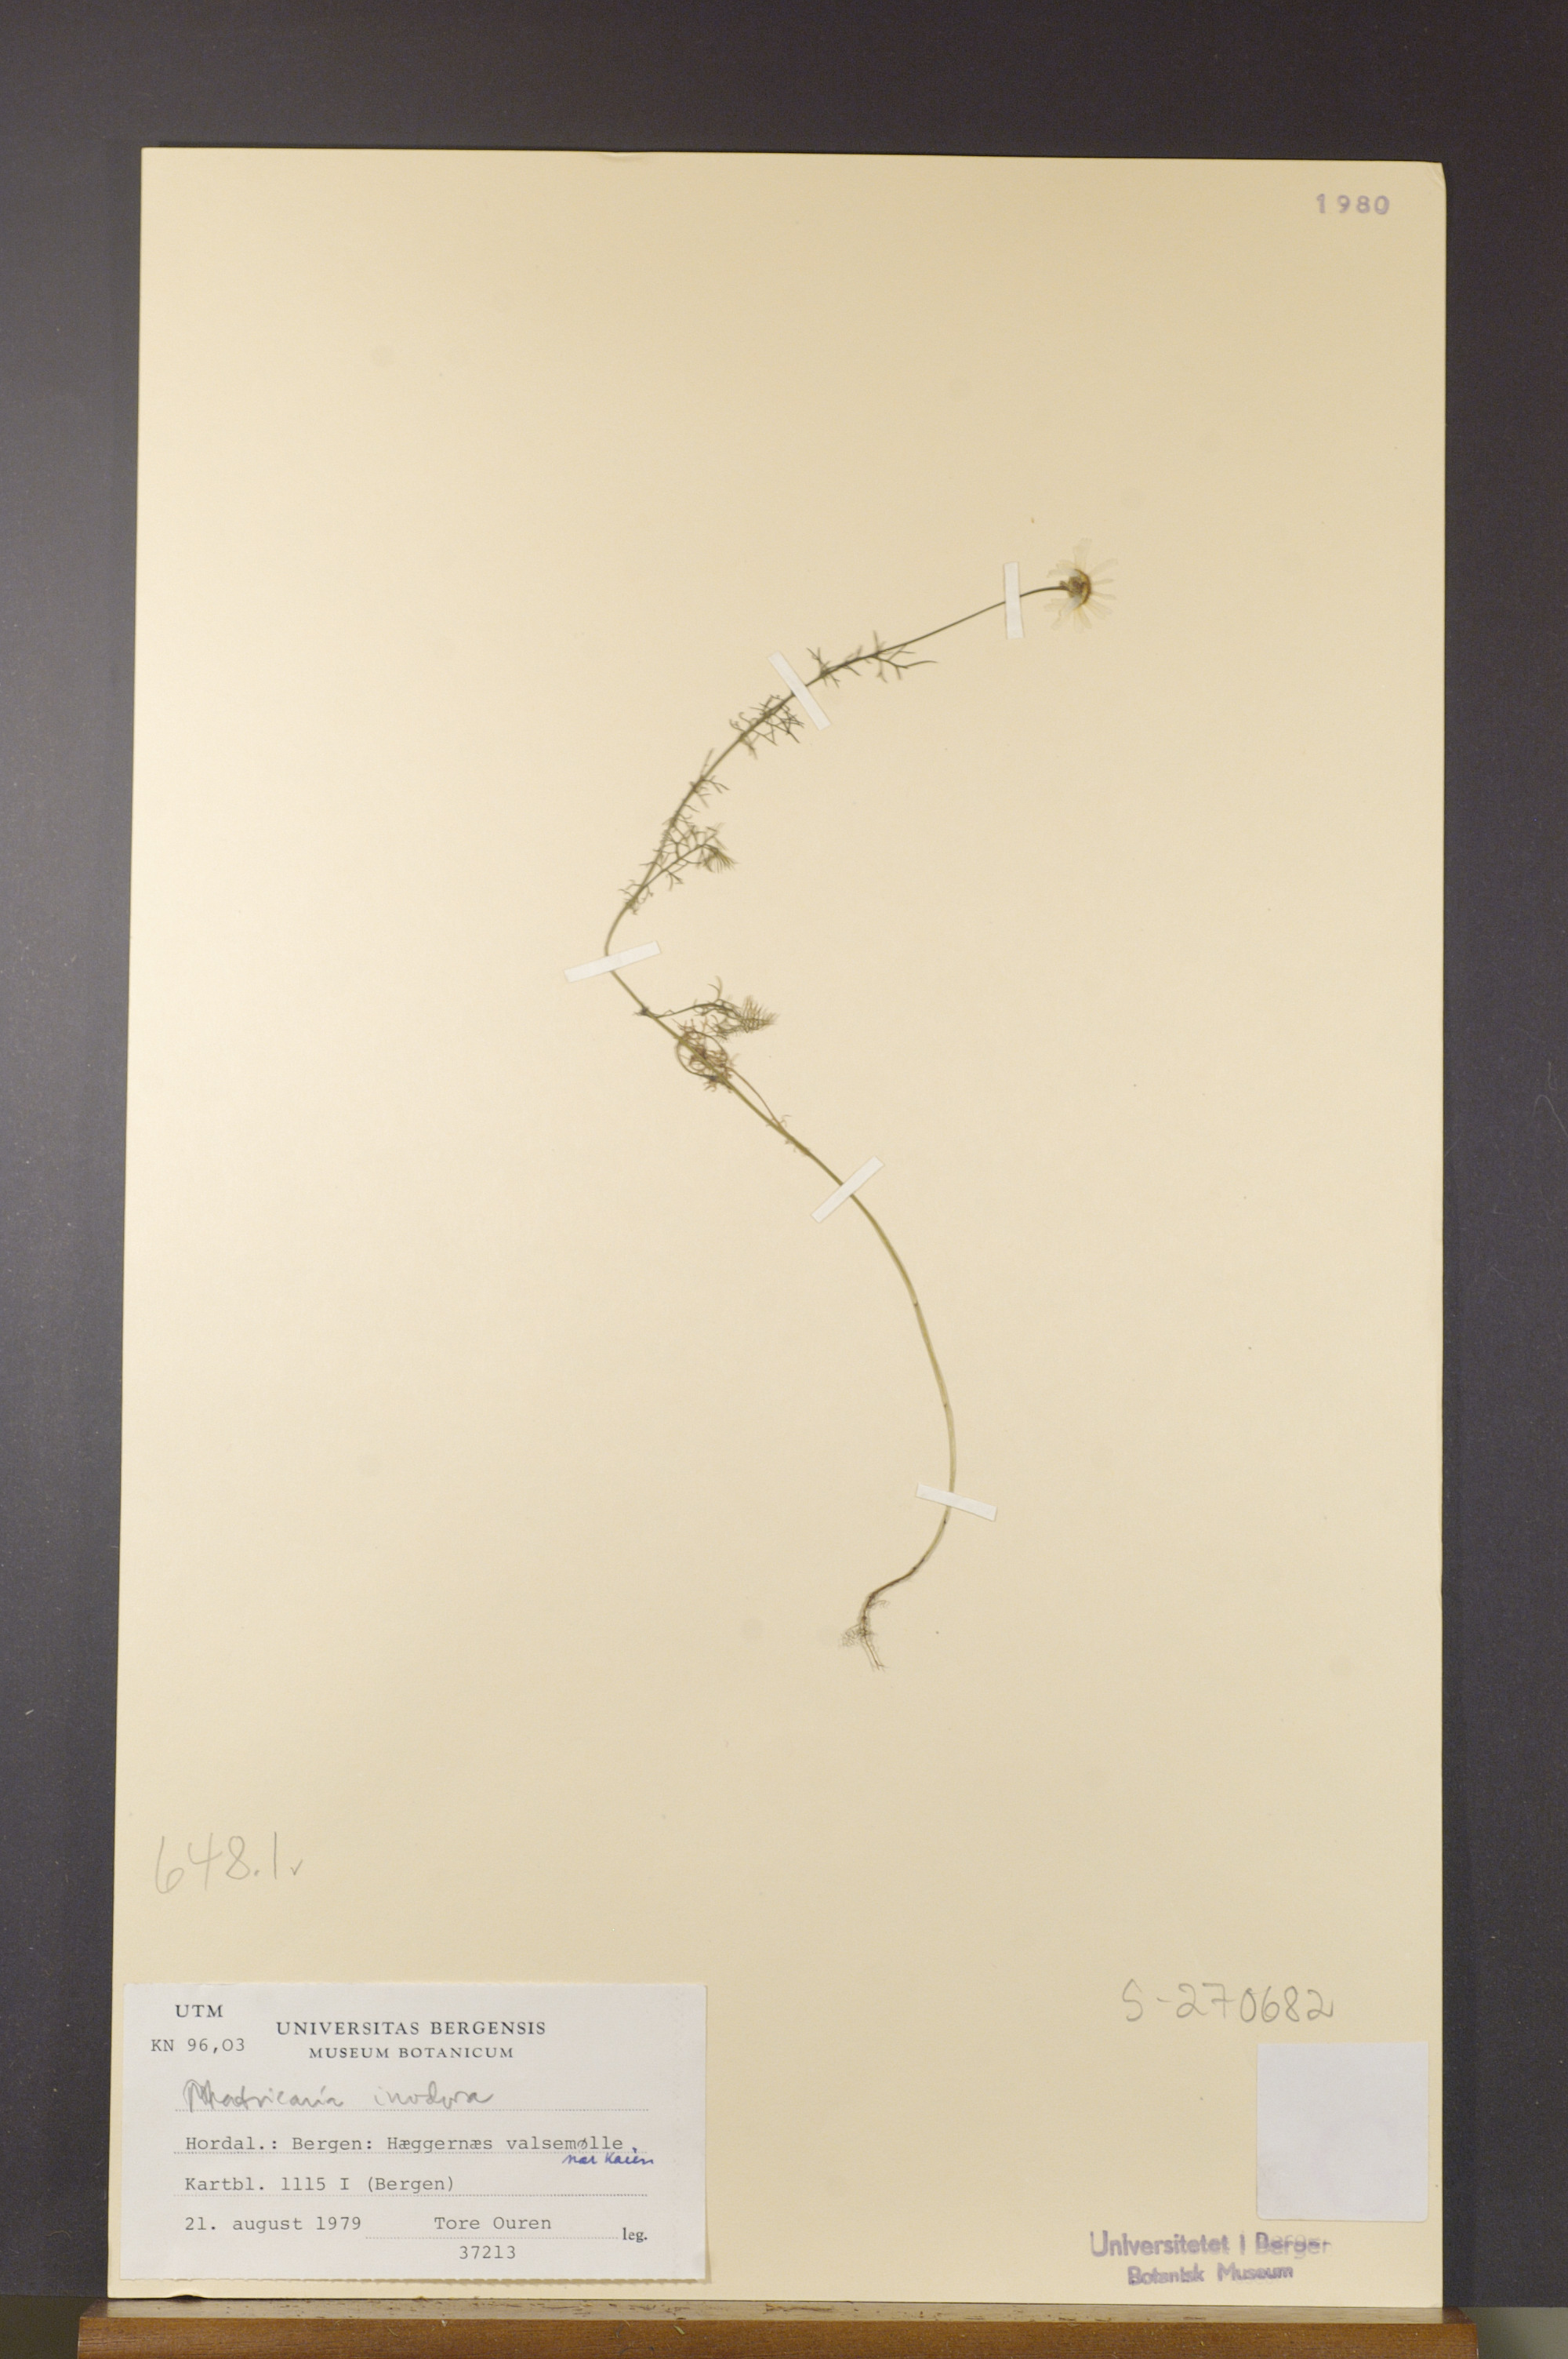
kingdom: Plantae
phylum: Tracheophyta
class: Magnoliopsida
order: Asterales
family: Asteraceae
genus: Tripleurospermum
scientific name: Tripleurospermum inodorum
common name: Scentless mayweed
